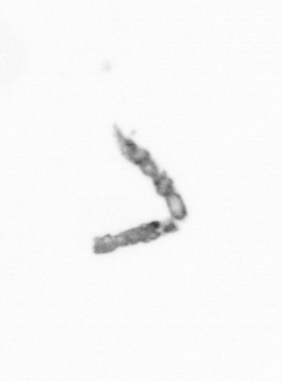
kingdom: Chromista
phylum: Ochrophyta
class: Bacillariophyceae
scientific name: Bacillariophyceae
